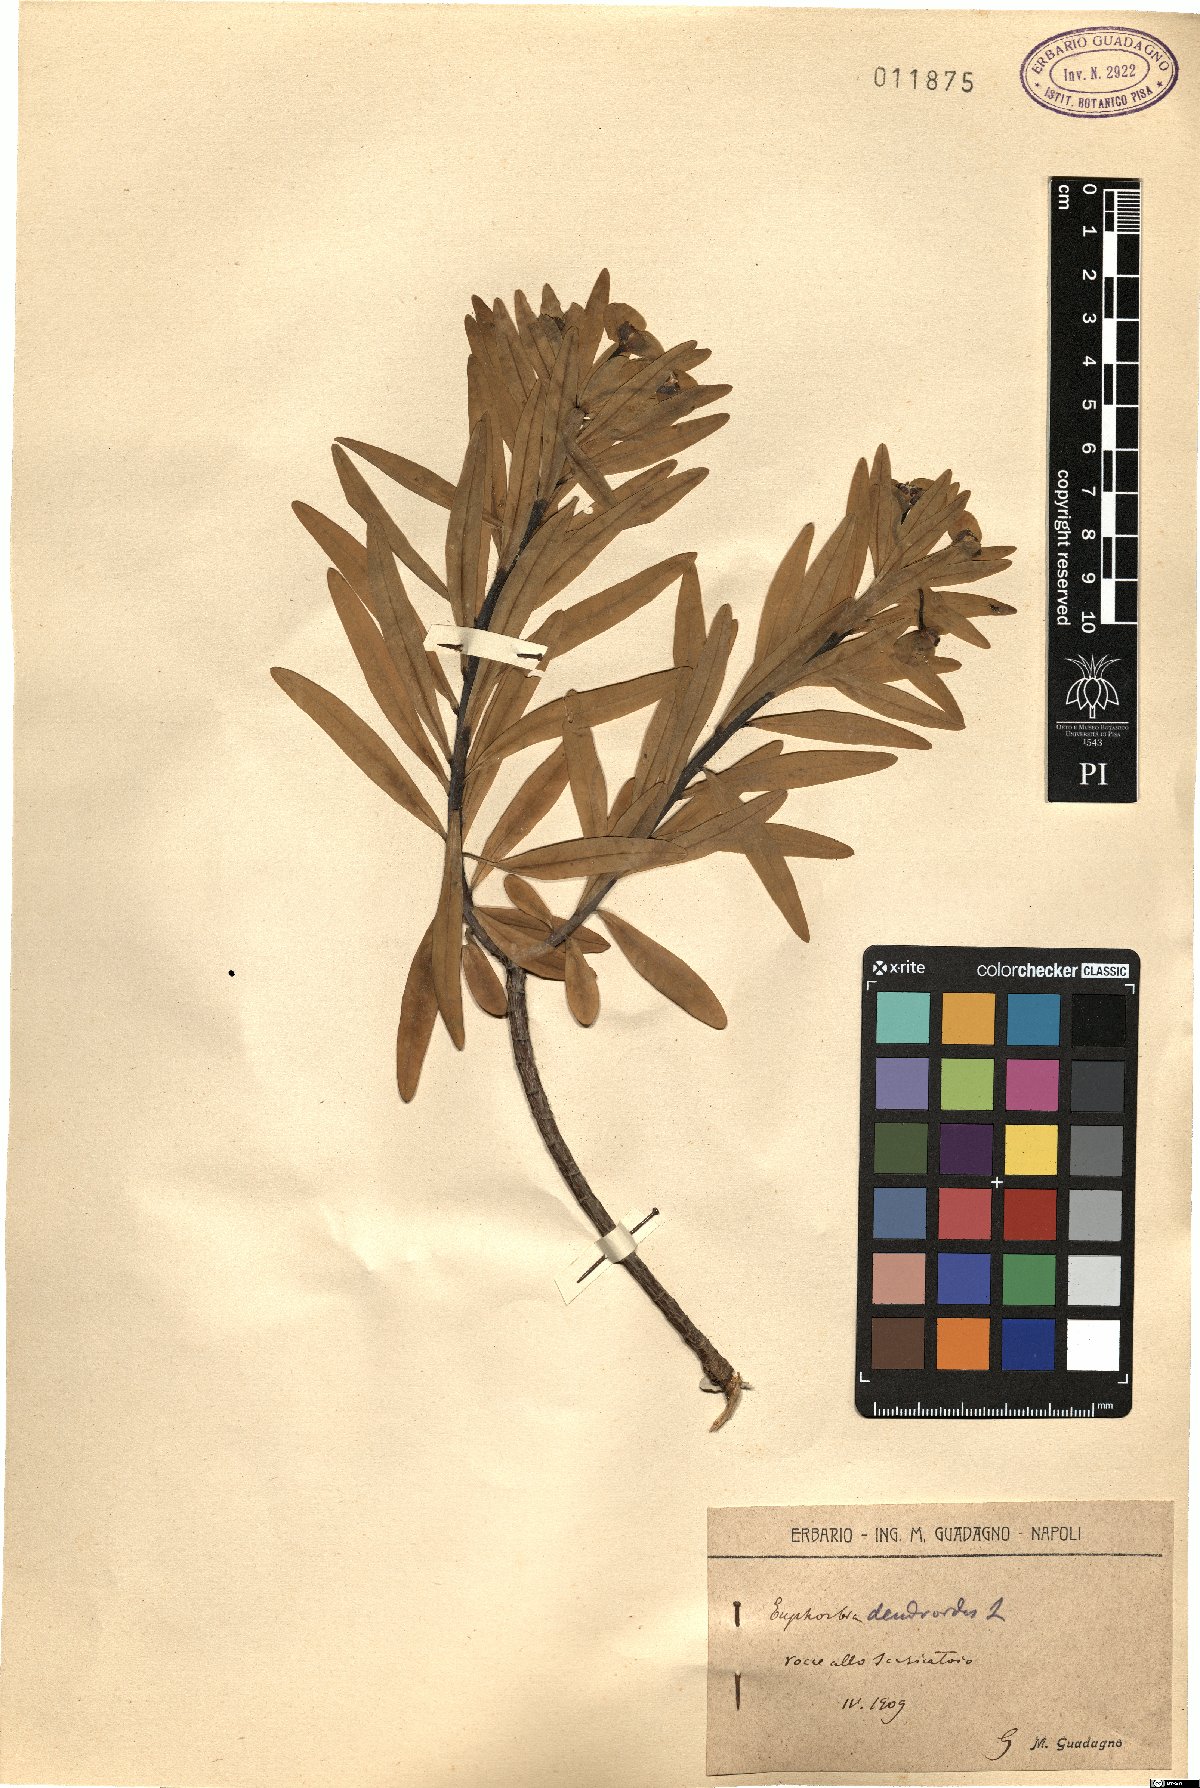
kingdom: Plantae
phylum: Tracheophyta
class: Magnoliopsida
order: Malpighiales
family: Euphorbiaceae
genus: Euphorbia
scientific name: Euphorbia dendroides
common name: Tree spurge
